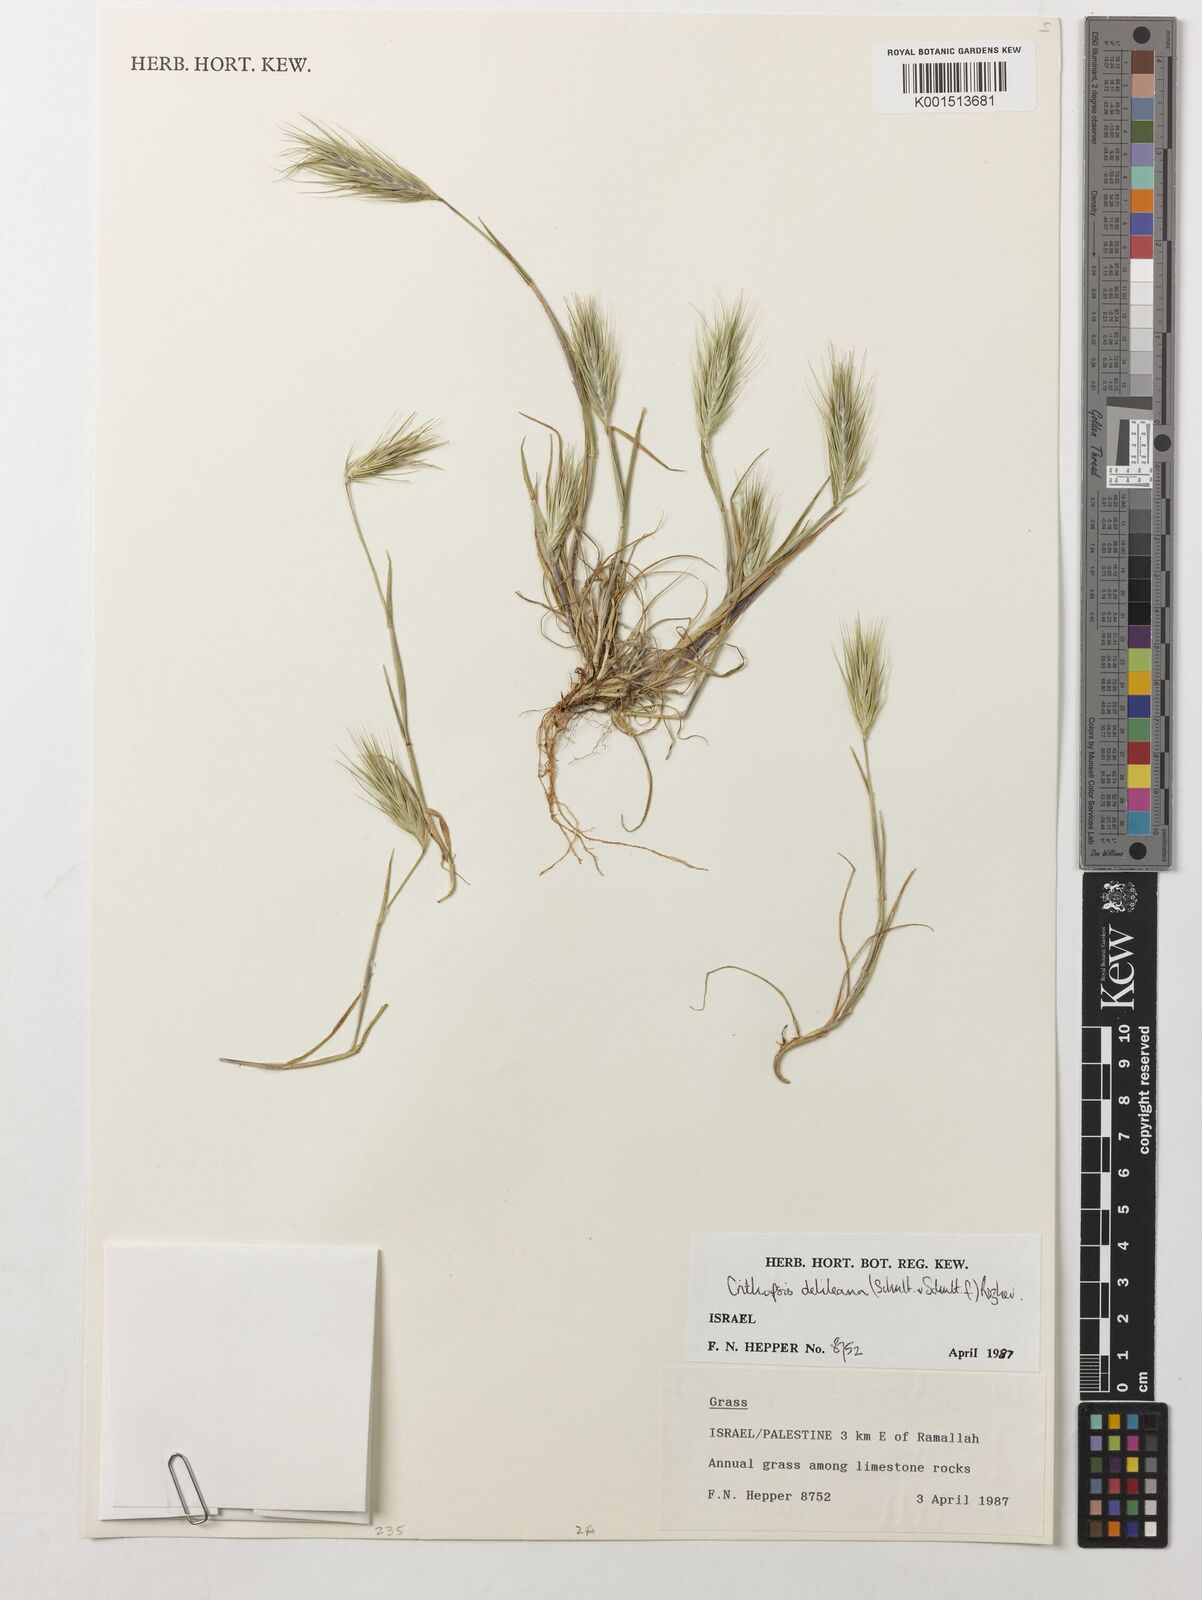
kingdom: Plantae
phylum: Tracheophyta
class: Liliopsida
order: Poales
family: Poaceae
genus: Crithopsis
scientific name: Crithopsis delileana
